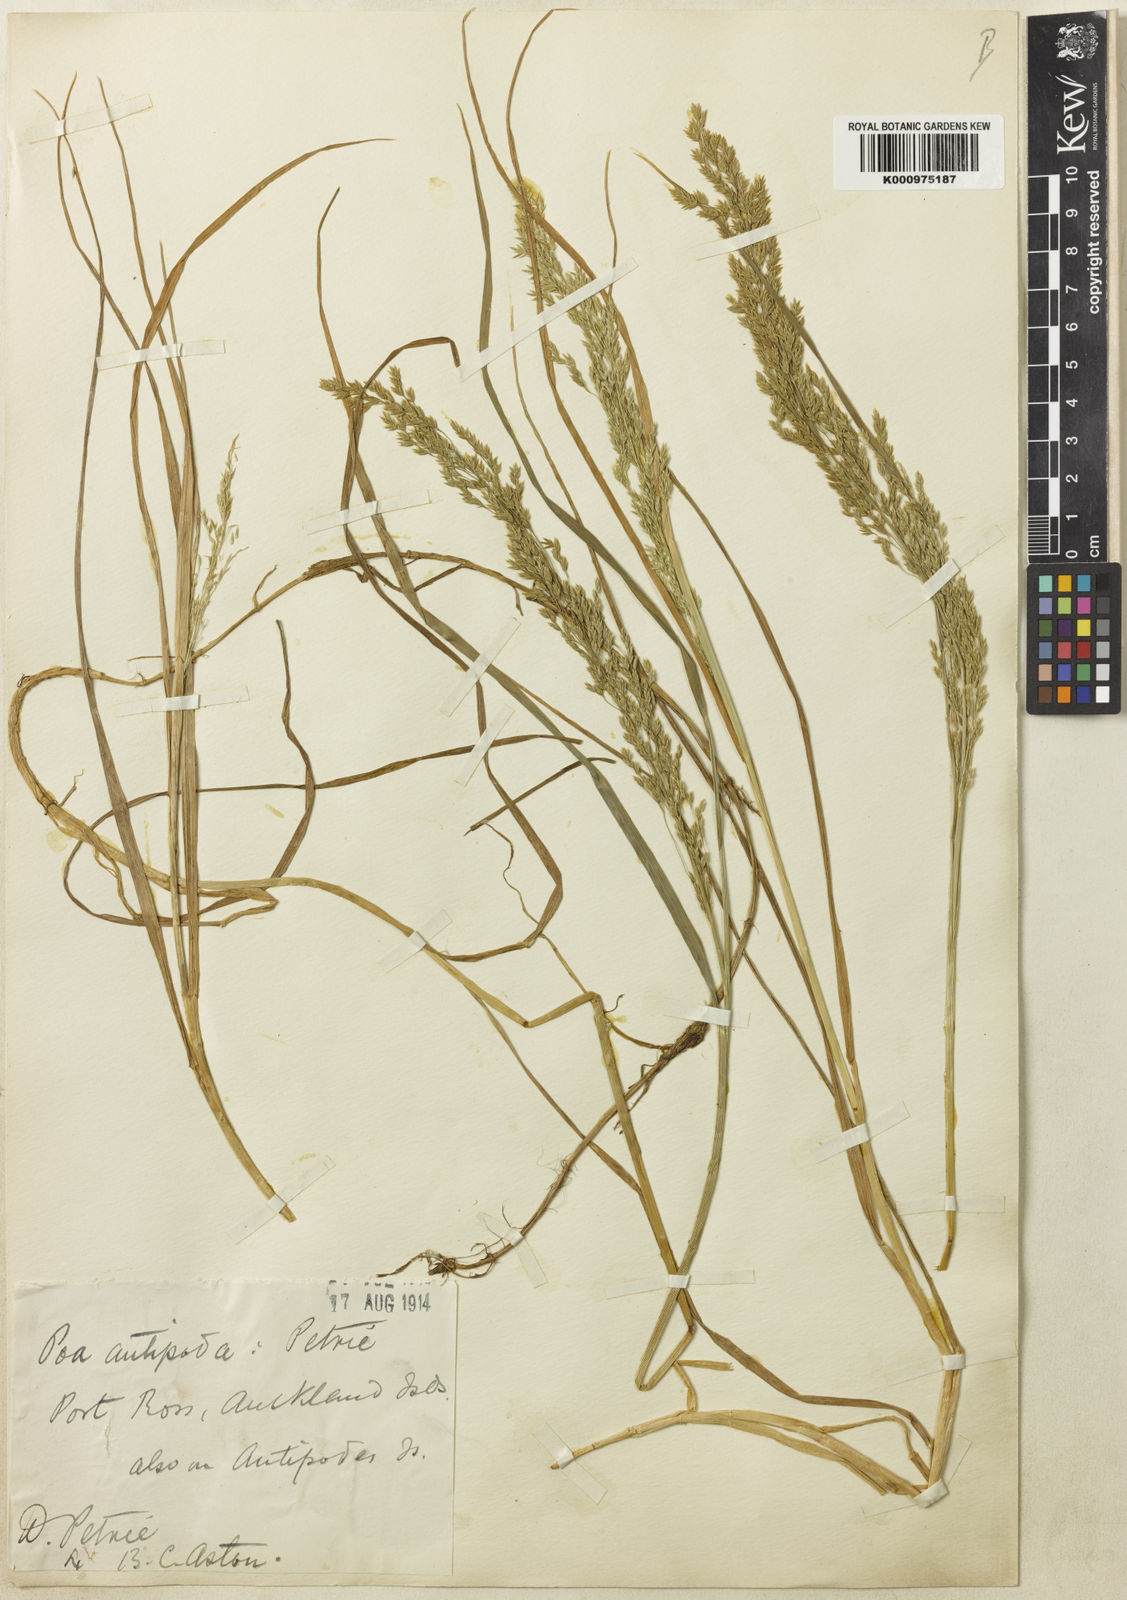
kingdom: Plantae
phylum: Tracheophyta
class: Liliopsida
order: Poales
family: Poaceae
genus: Poa
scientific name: Poa antipoda
